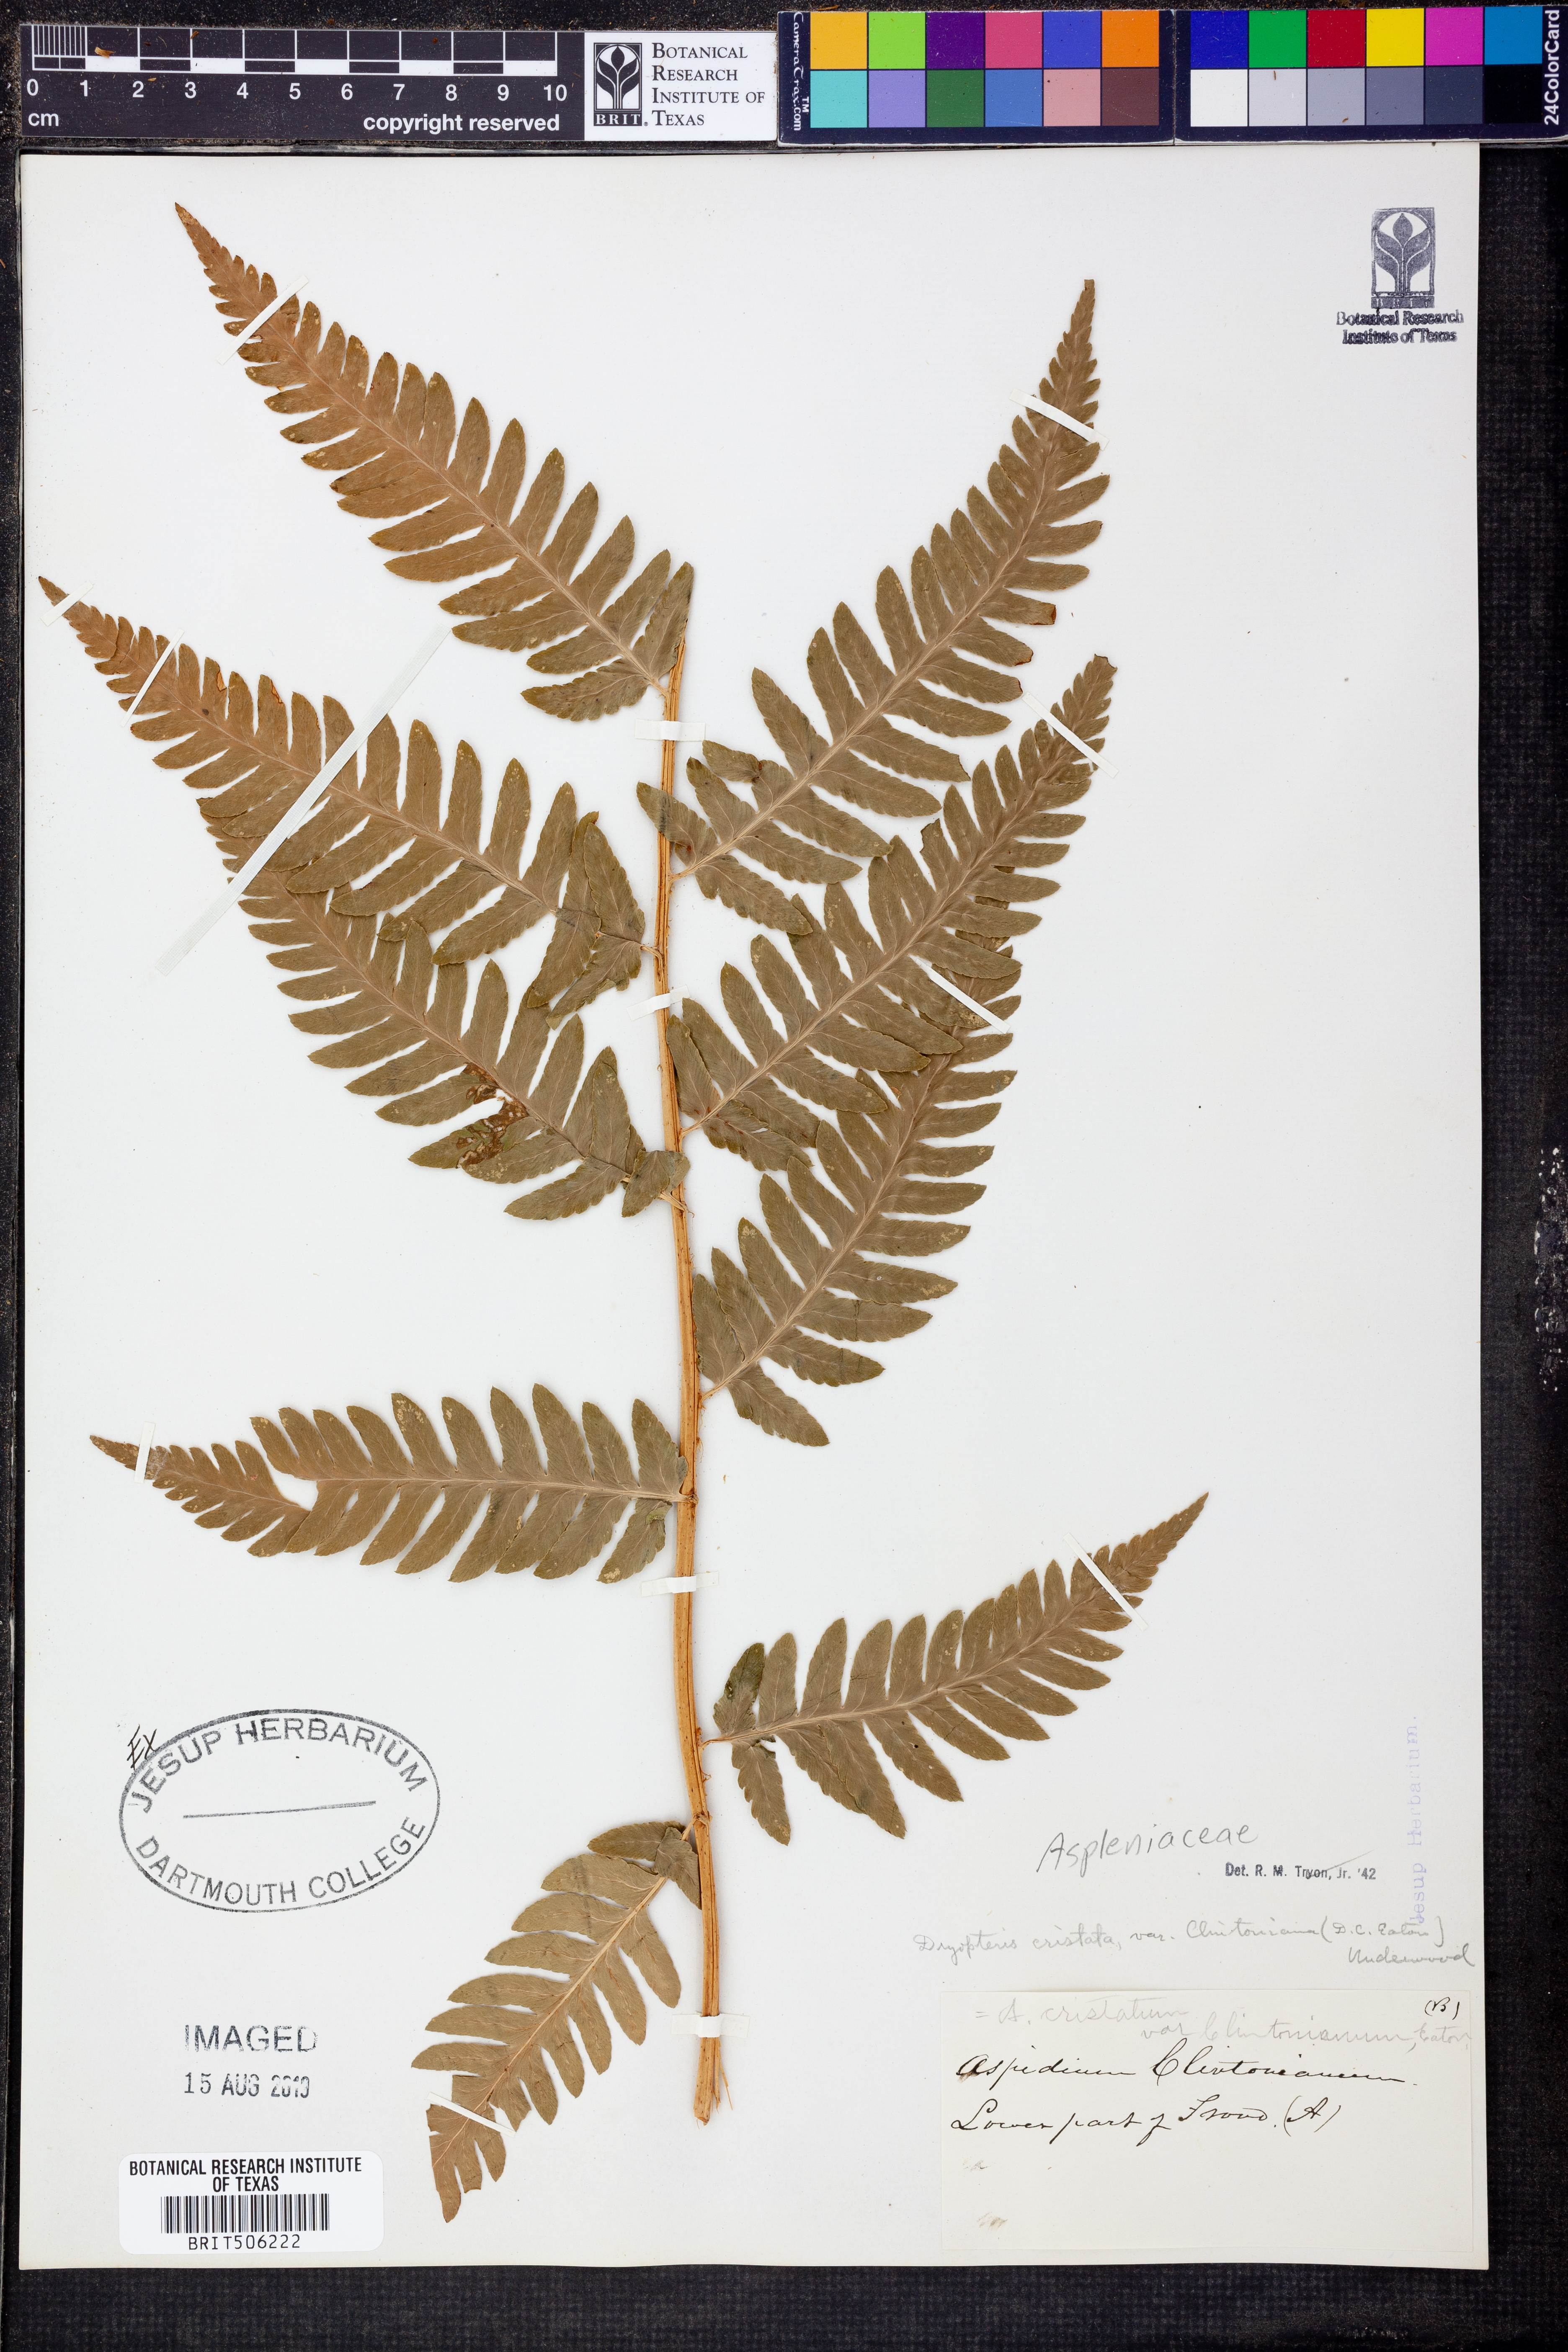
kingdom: Plantae
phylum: Tracheophyta
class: Polypodiopsida
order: Polypodiales
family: Dryopteridaceae
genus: Dryopteris
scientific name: Dryopteris clintoniana
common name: Clinton's wood fern
